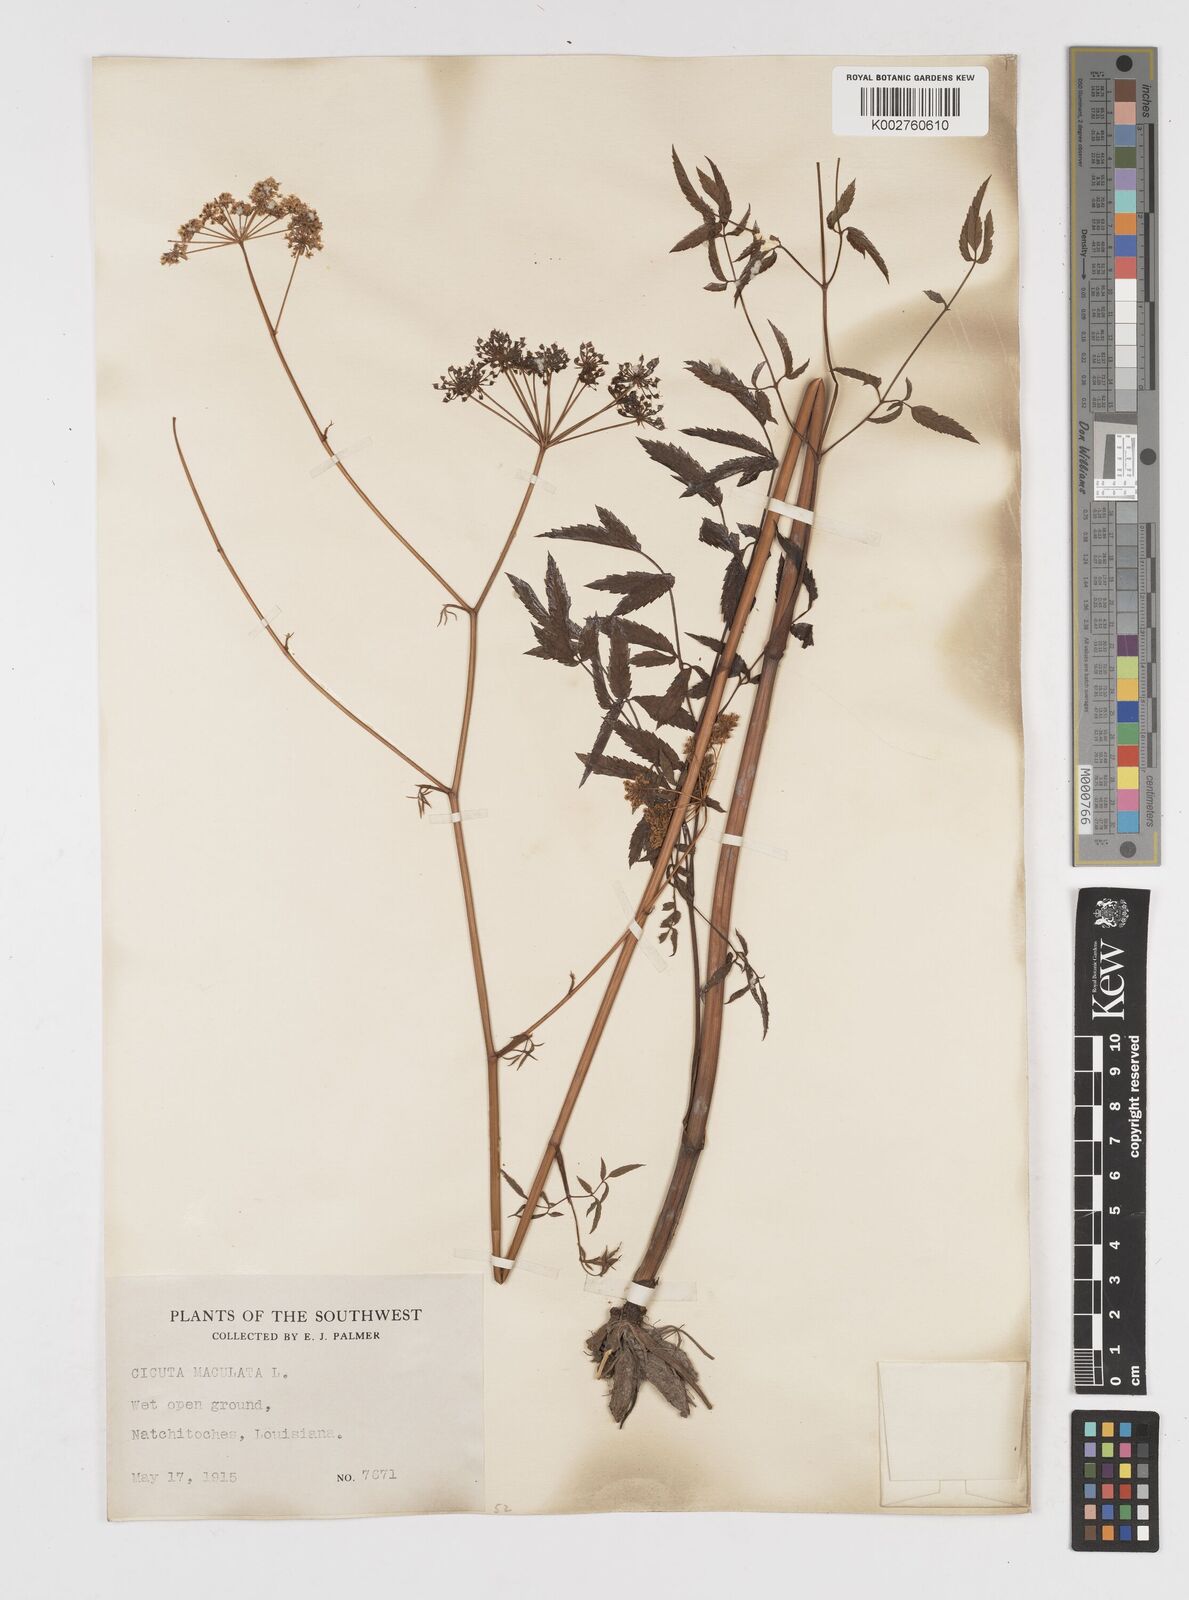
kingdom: Plantae
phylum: Tracheophyta
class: Magnoliopsida
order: Apiales
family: Apiaceae
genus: Cicuta
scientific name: Cicuta maculata
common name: Spotted cowbane
